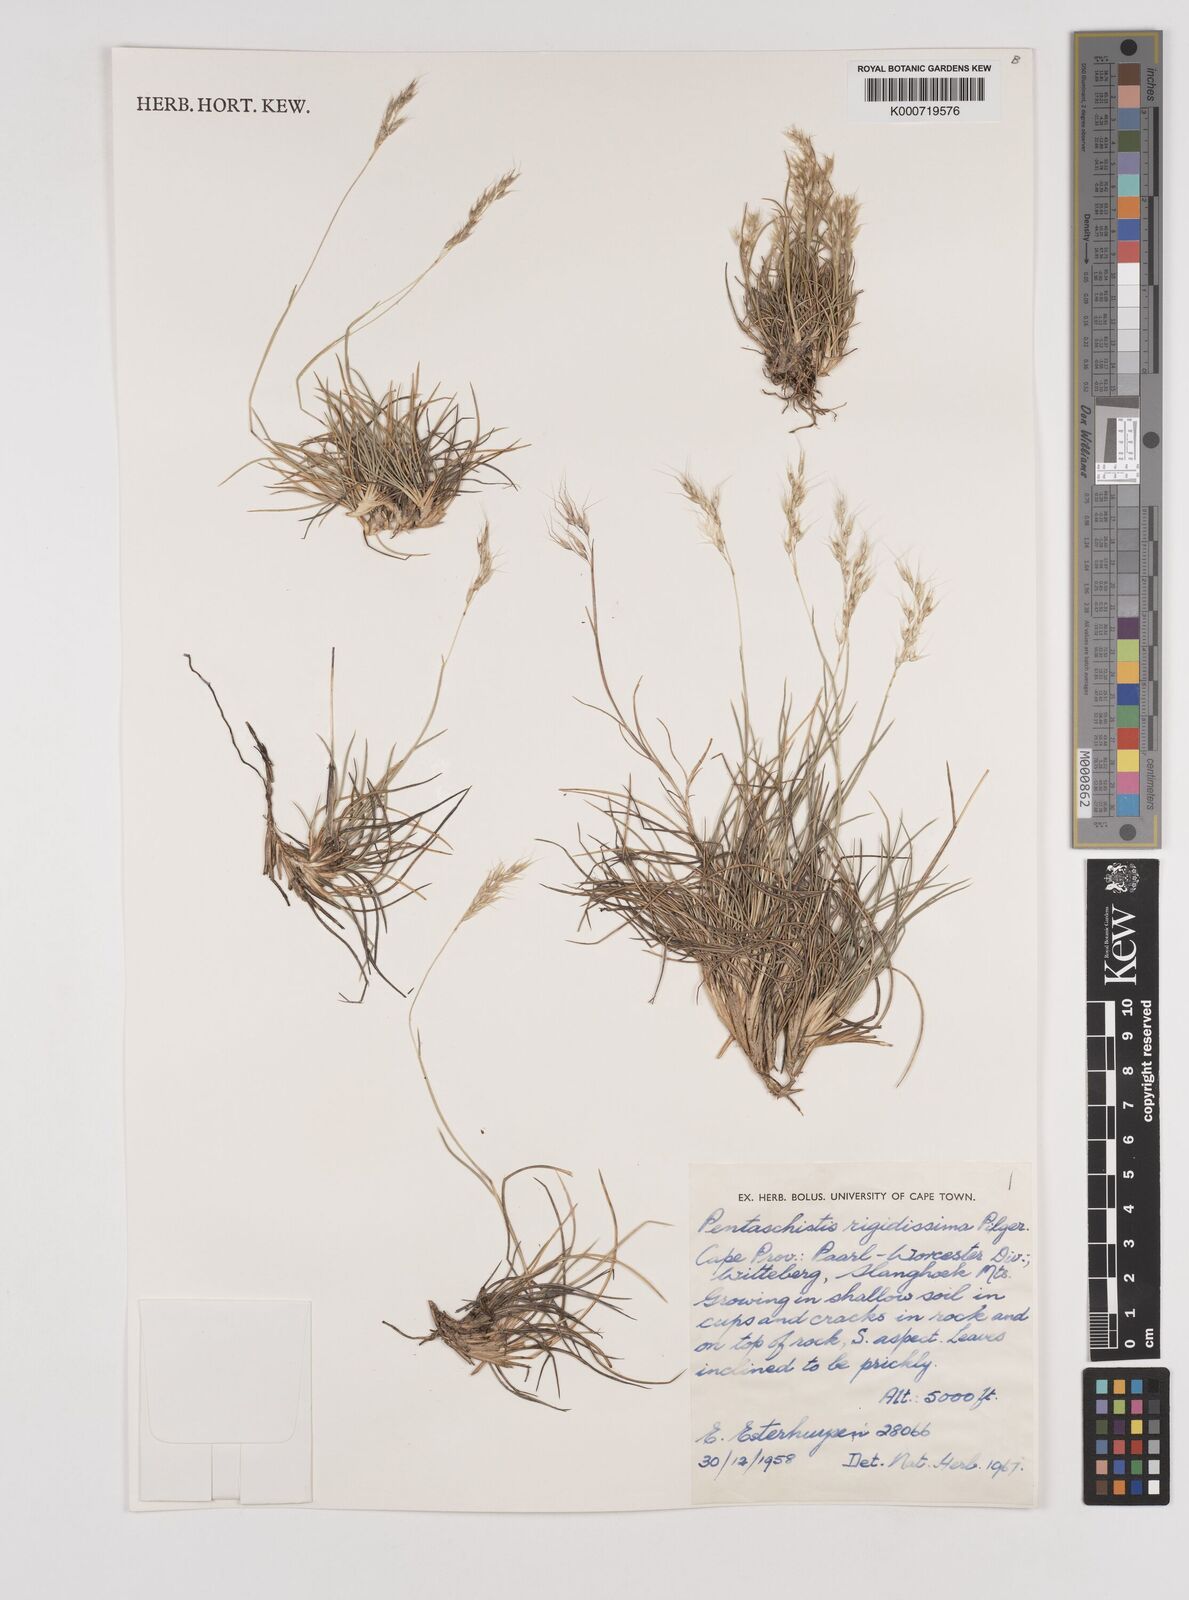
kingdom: Plantae
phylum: Tracheophyta
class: Liliopsida
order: Poales
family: Poaceae
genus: Pentameris
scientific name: Pentameris rigidissima
